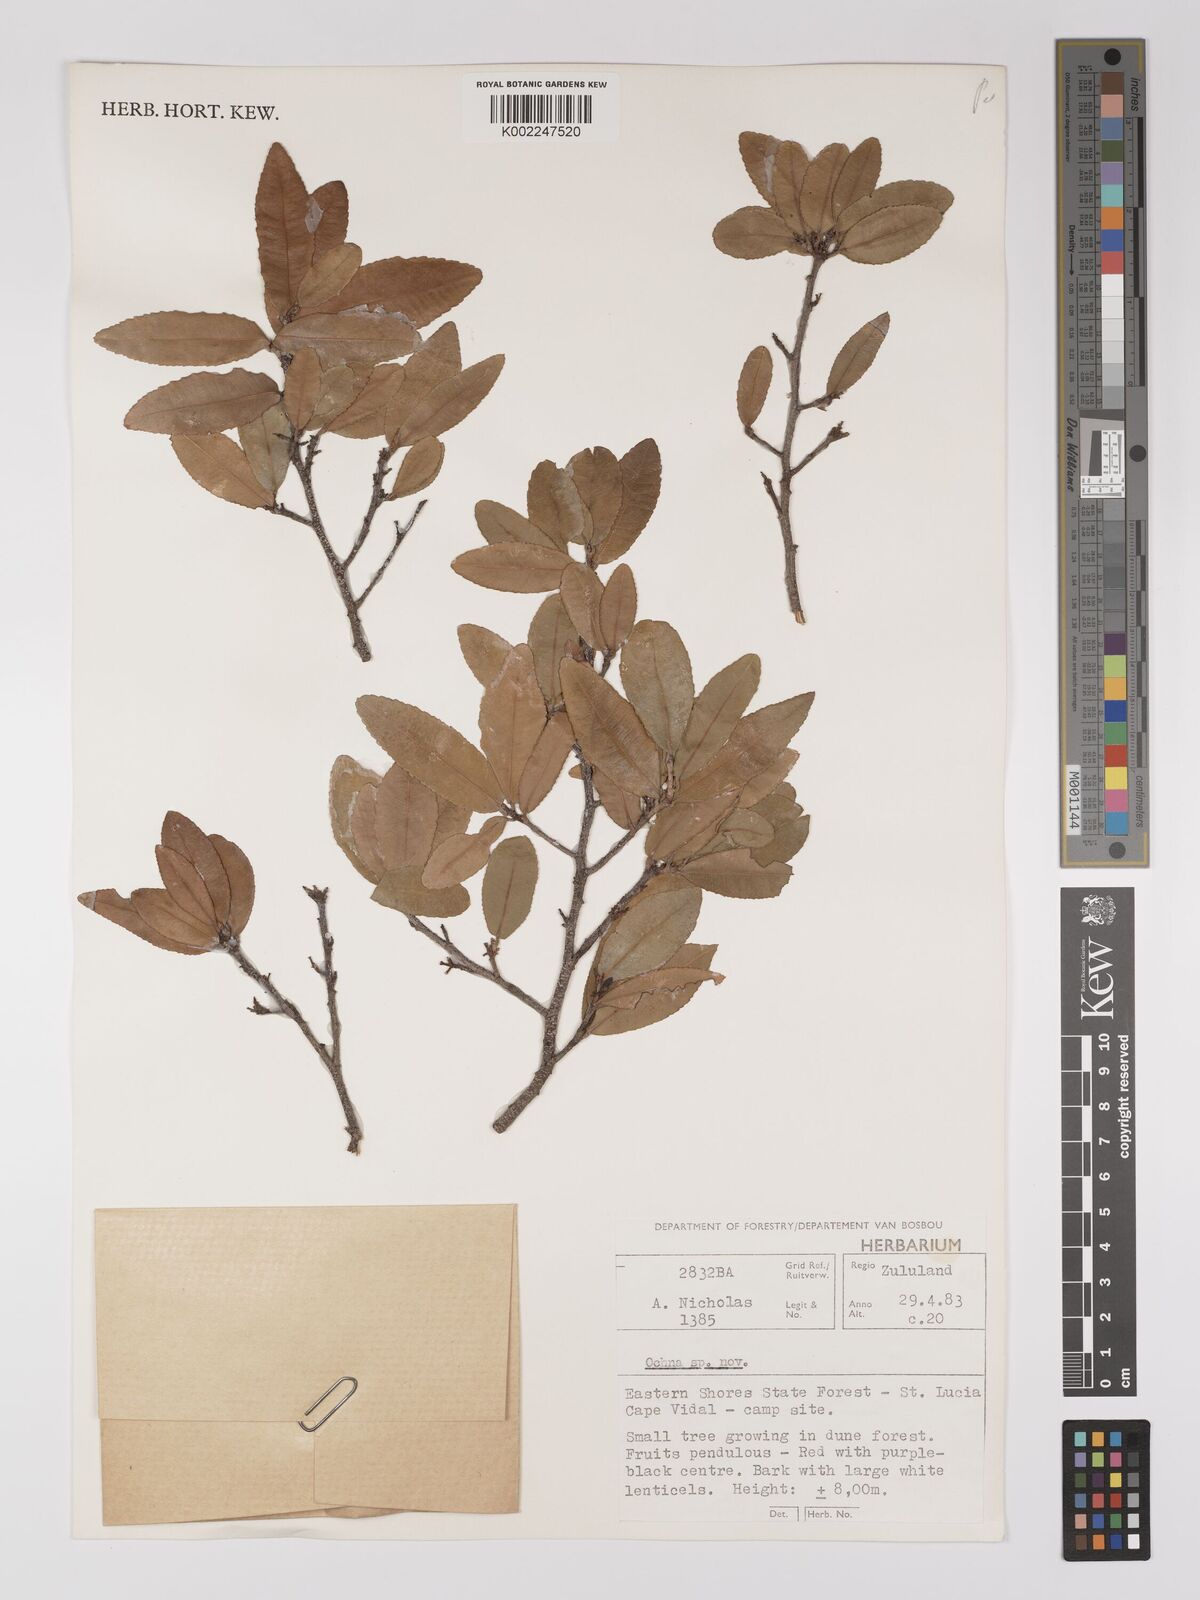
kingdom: Plantae
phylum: Tracheophyta
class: Magnoliopsida
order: Malpighiales
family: Ochnaceae
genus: Ochna
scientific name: Ochna
